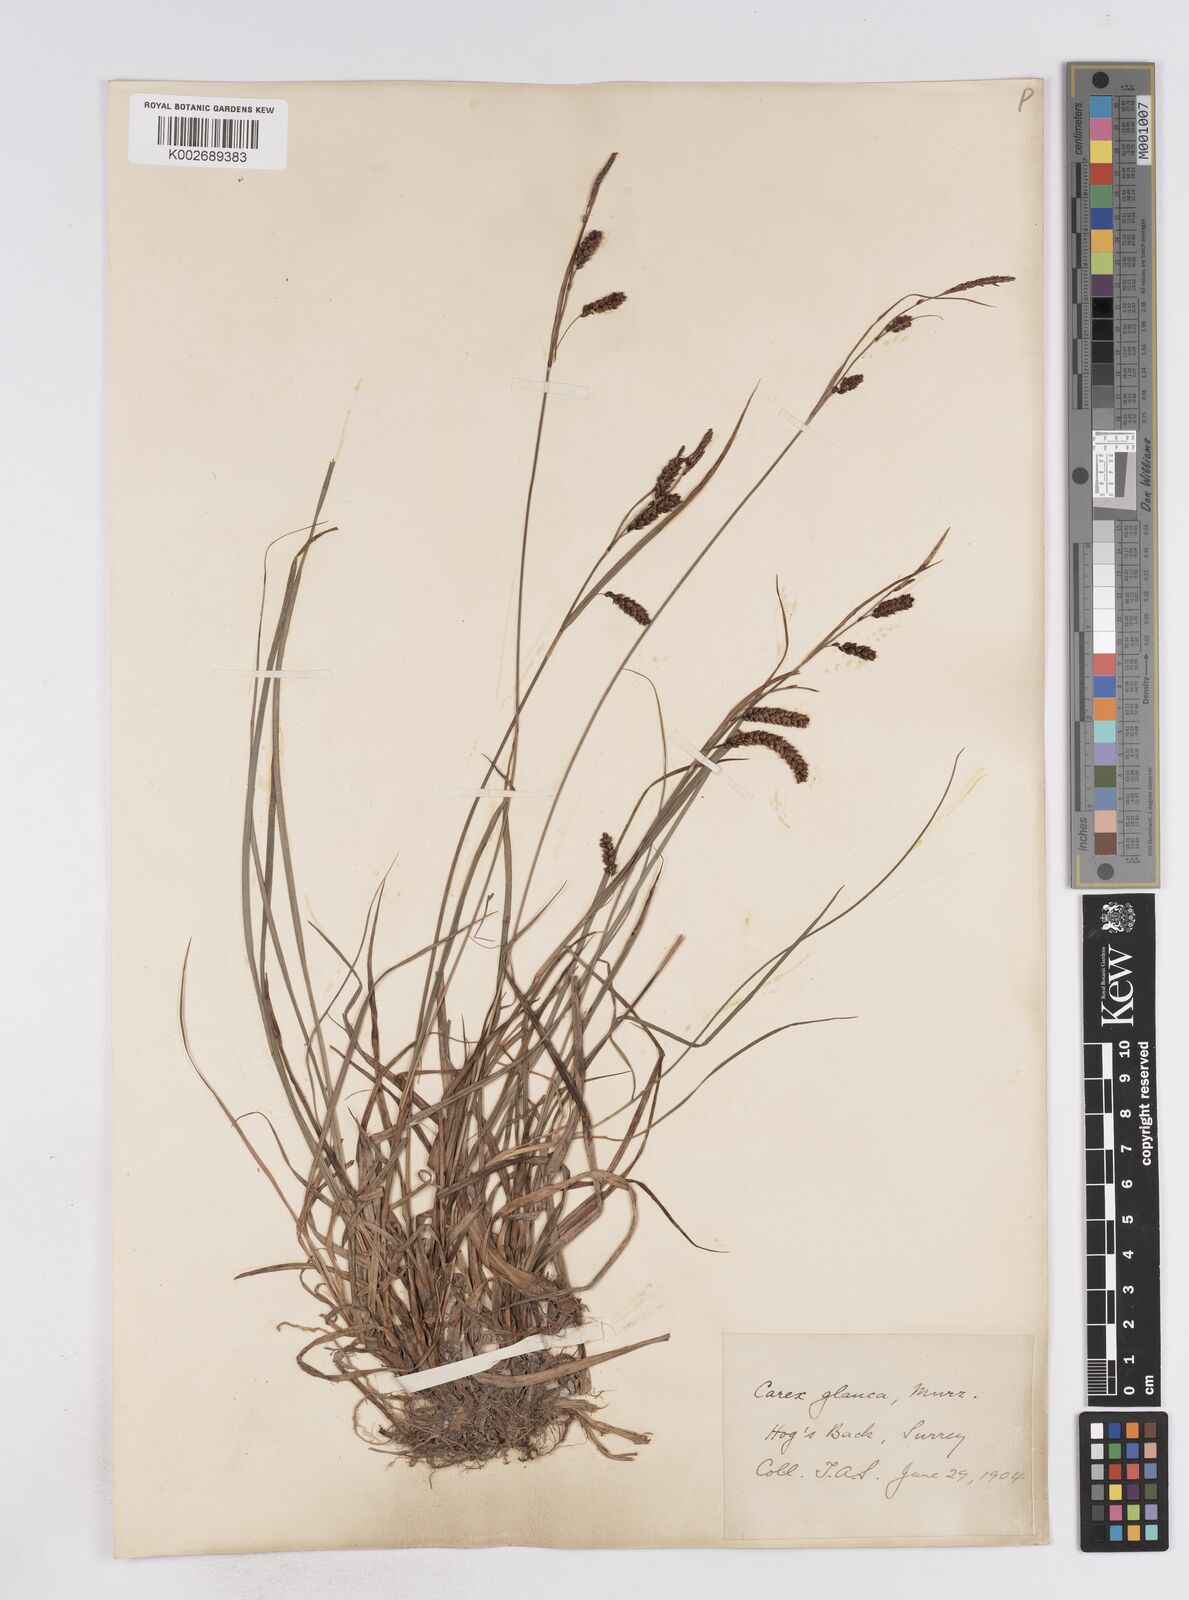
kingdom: Plantae
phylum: Tracheophyta
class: Liliopsida
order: Poales
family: Cyperaceae
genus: Carex
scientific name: Carex flacca
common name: Glaucous sedge
